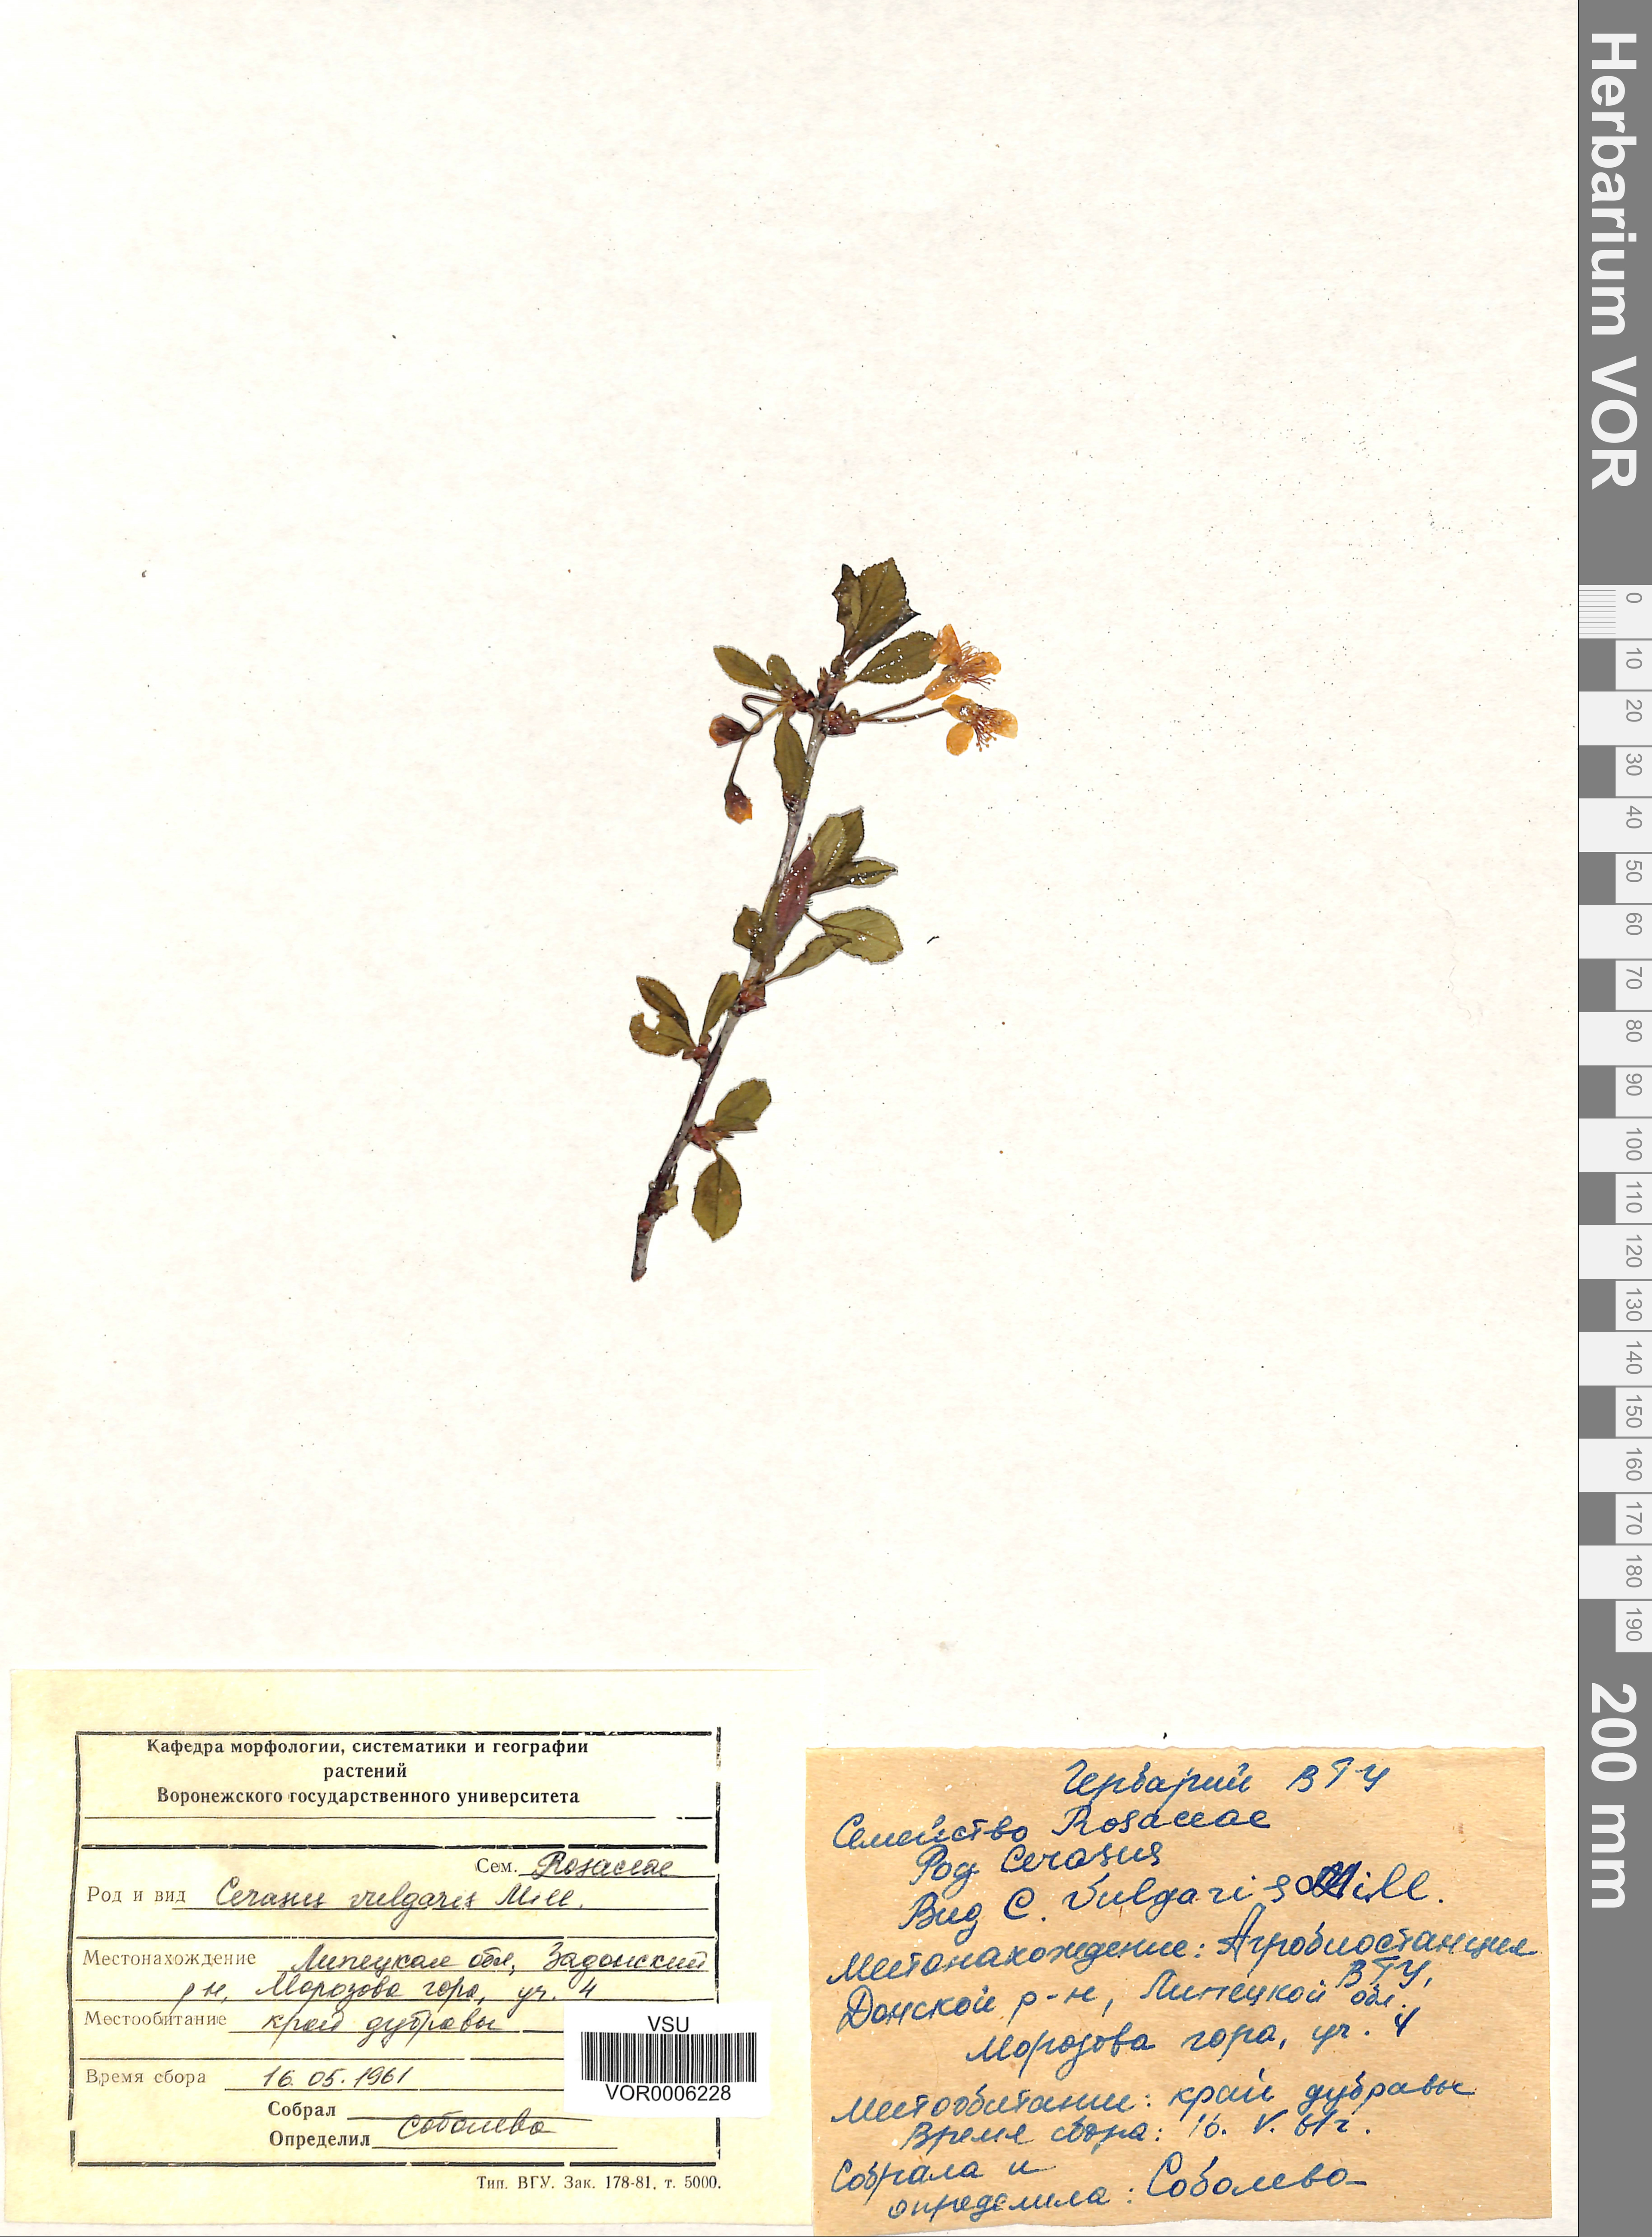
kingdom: Plantae
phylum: Tracheophyta
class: Magnoliopsida
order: Rosales
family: Rosaceae
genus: Prunus
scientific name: Prunus cerasus
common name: Morello cherry
